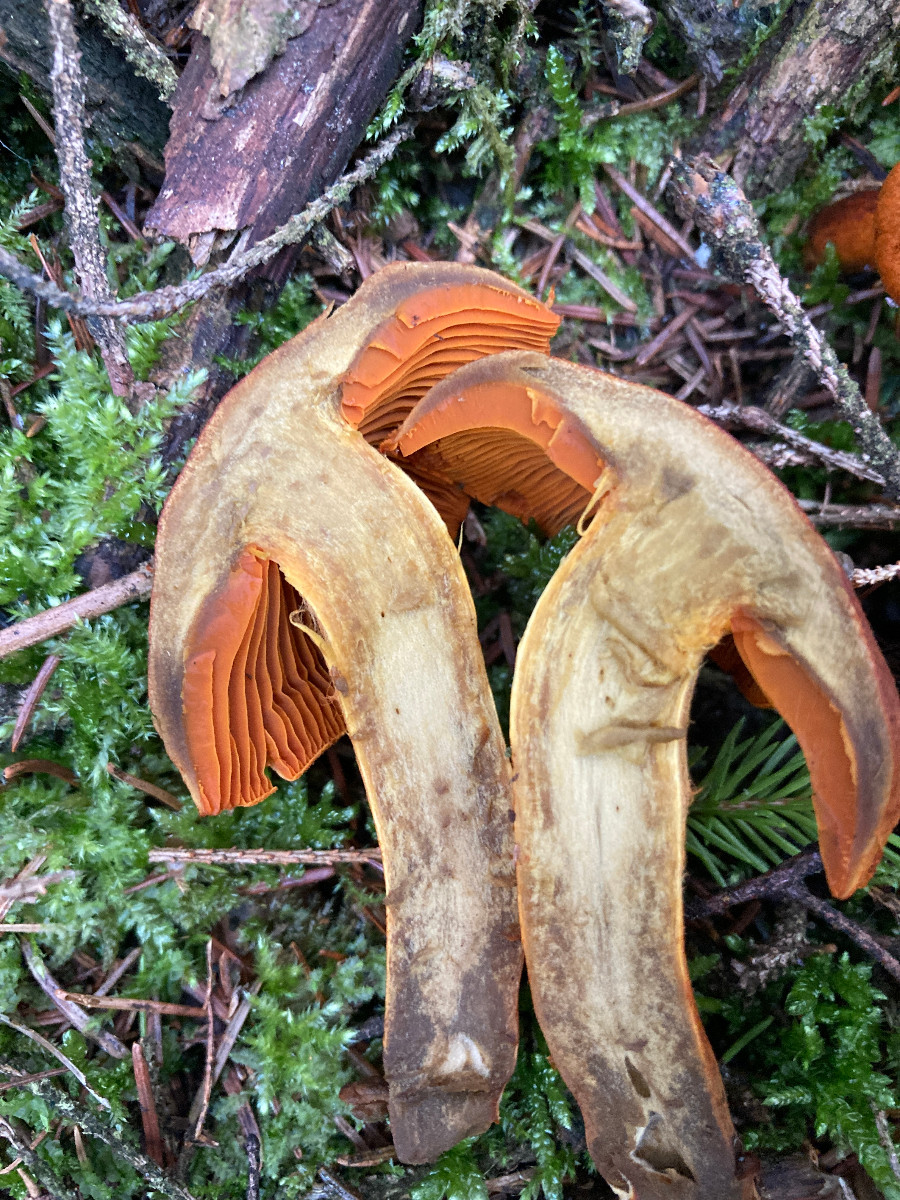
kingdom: Fungi
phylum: Basidiomycota
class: Agaricomycetes
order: Agaricales
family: Cortinariaceae
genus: Cortinarius
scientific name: Cortinarius malicorius
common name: grønkødet slørhat
